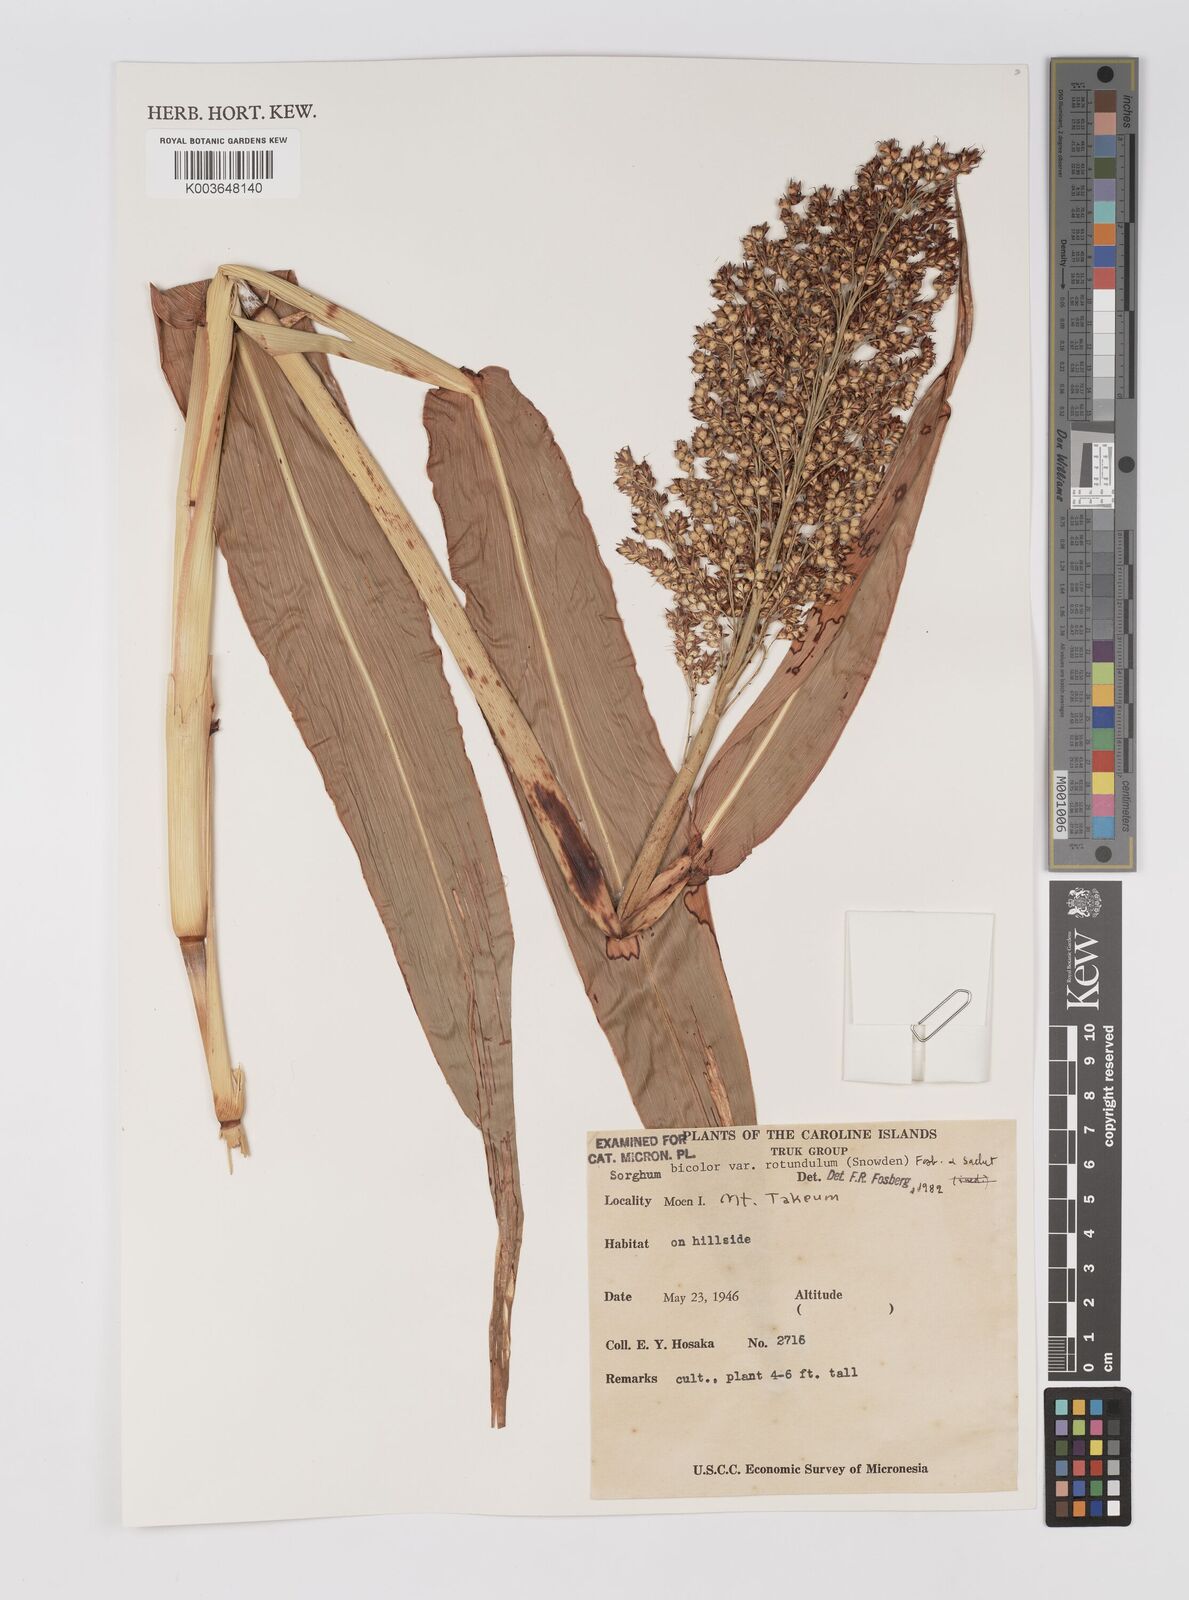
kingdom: Plantae
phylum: Tracheophyta
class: Liliopsida
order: Poales
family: Poaceae
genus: Sorghum
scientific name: Sorghum bicolor
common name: Sorghum
